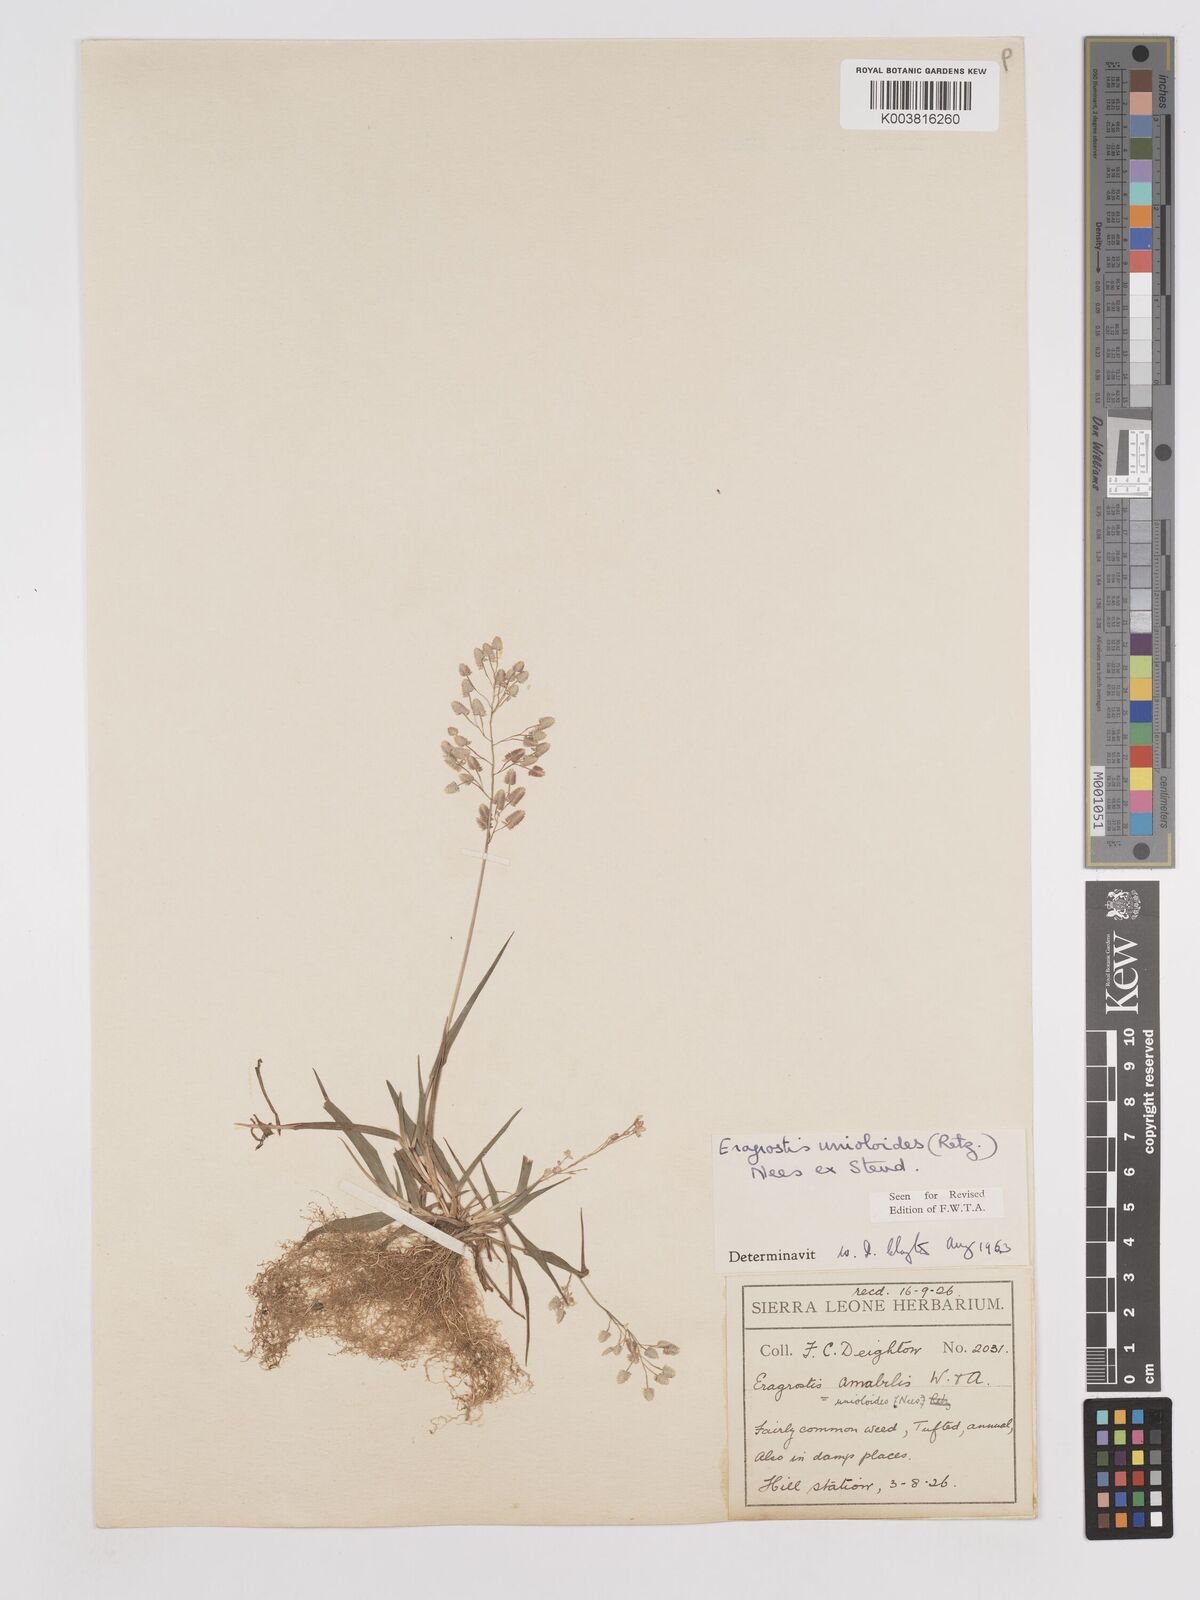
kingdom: Plantae
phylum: Tracheophyta
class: Liliopsida
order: Poales
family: Poaceae
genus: Eragrostis
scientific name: Eragrostis unioloides
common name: Chinese lovegrass
